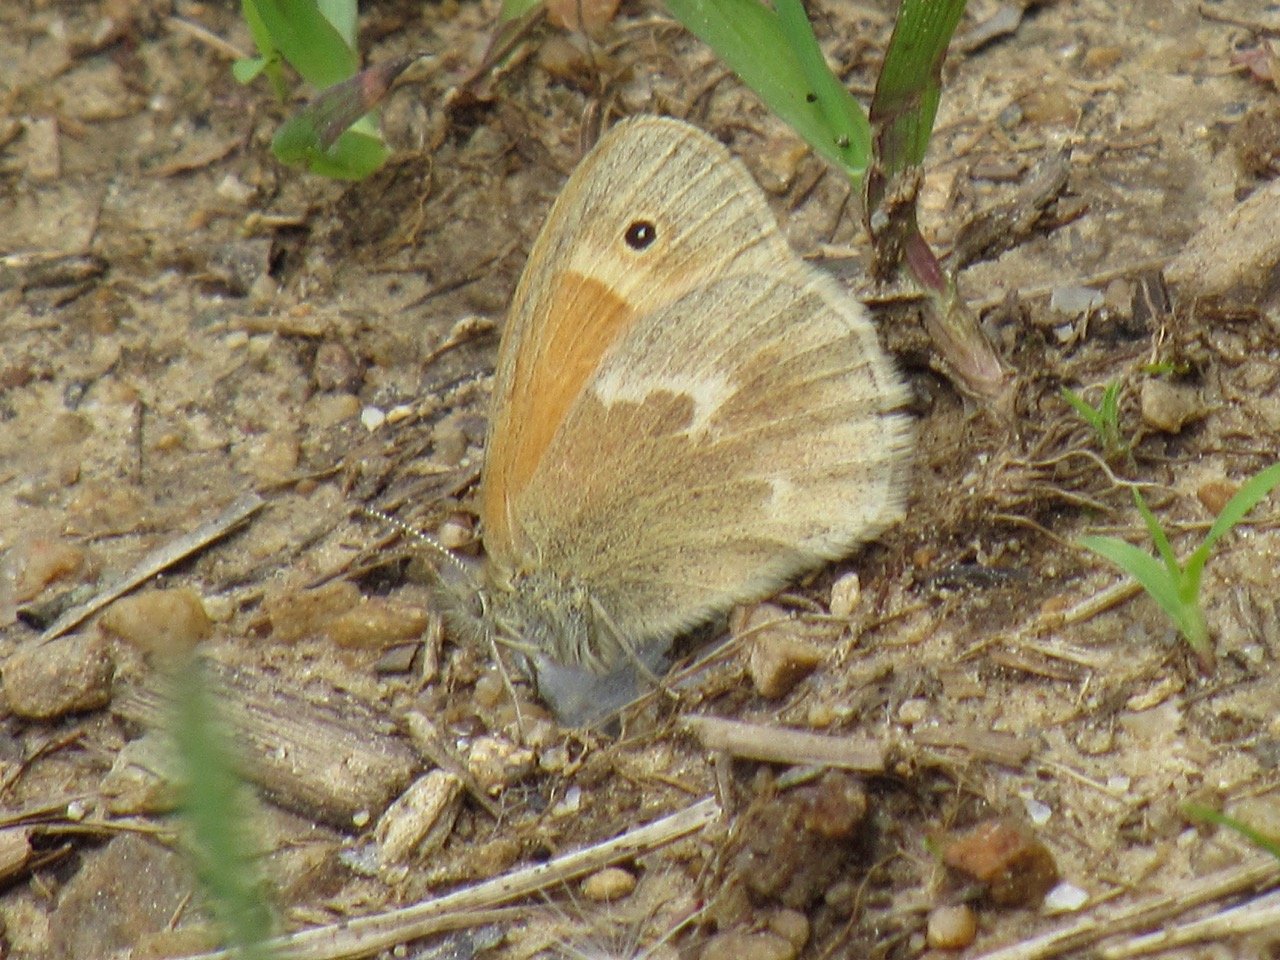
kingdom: Animalia
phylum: Arthropoda
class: Insecta
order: Lepidoptera
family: Nymphalidae
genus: Coenonympha
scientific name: Coenonympha tullia
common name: Large Heath
